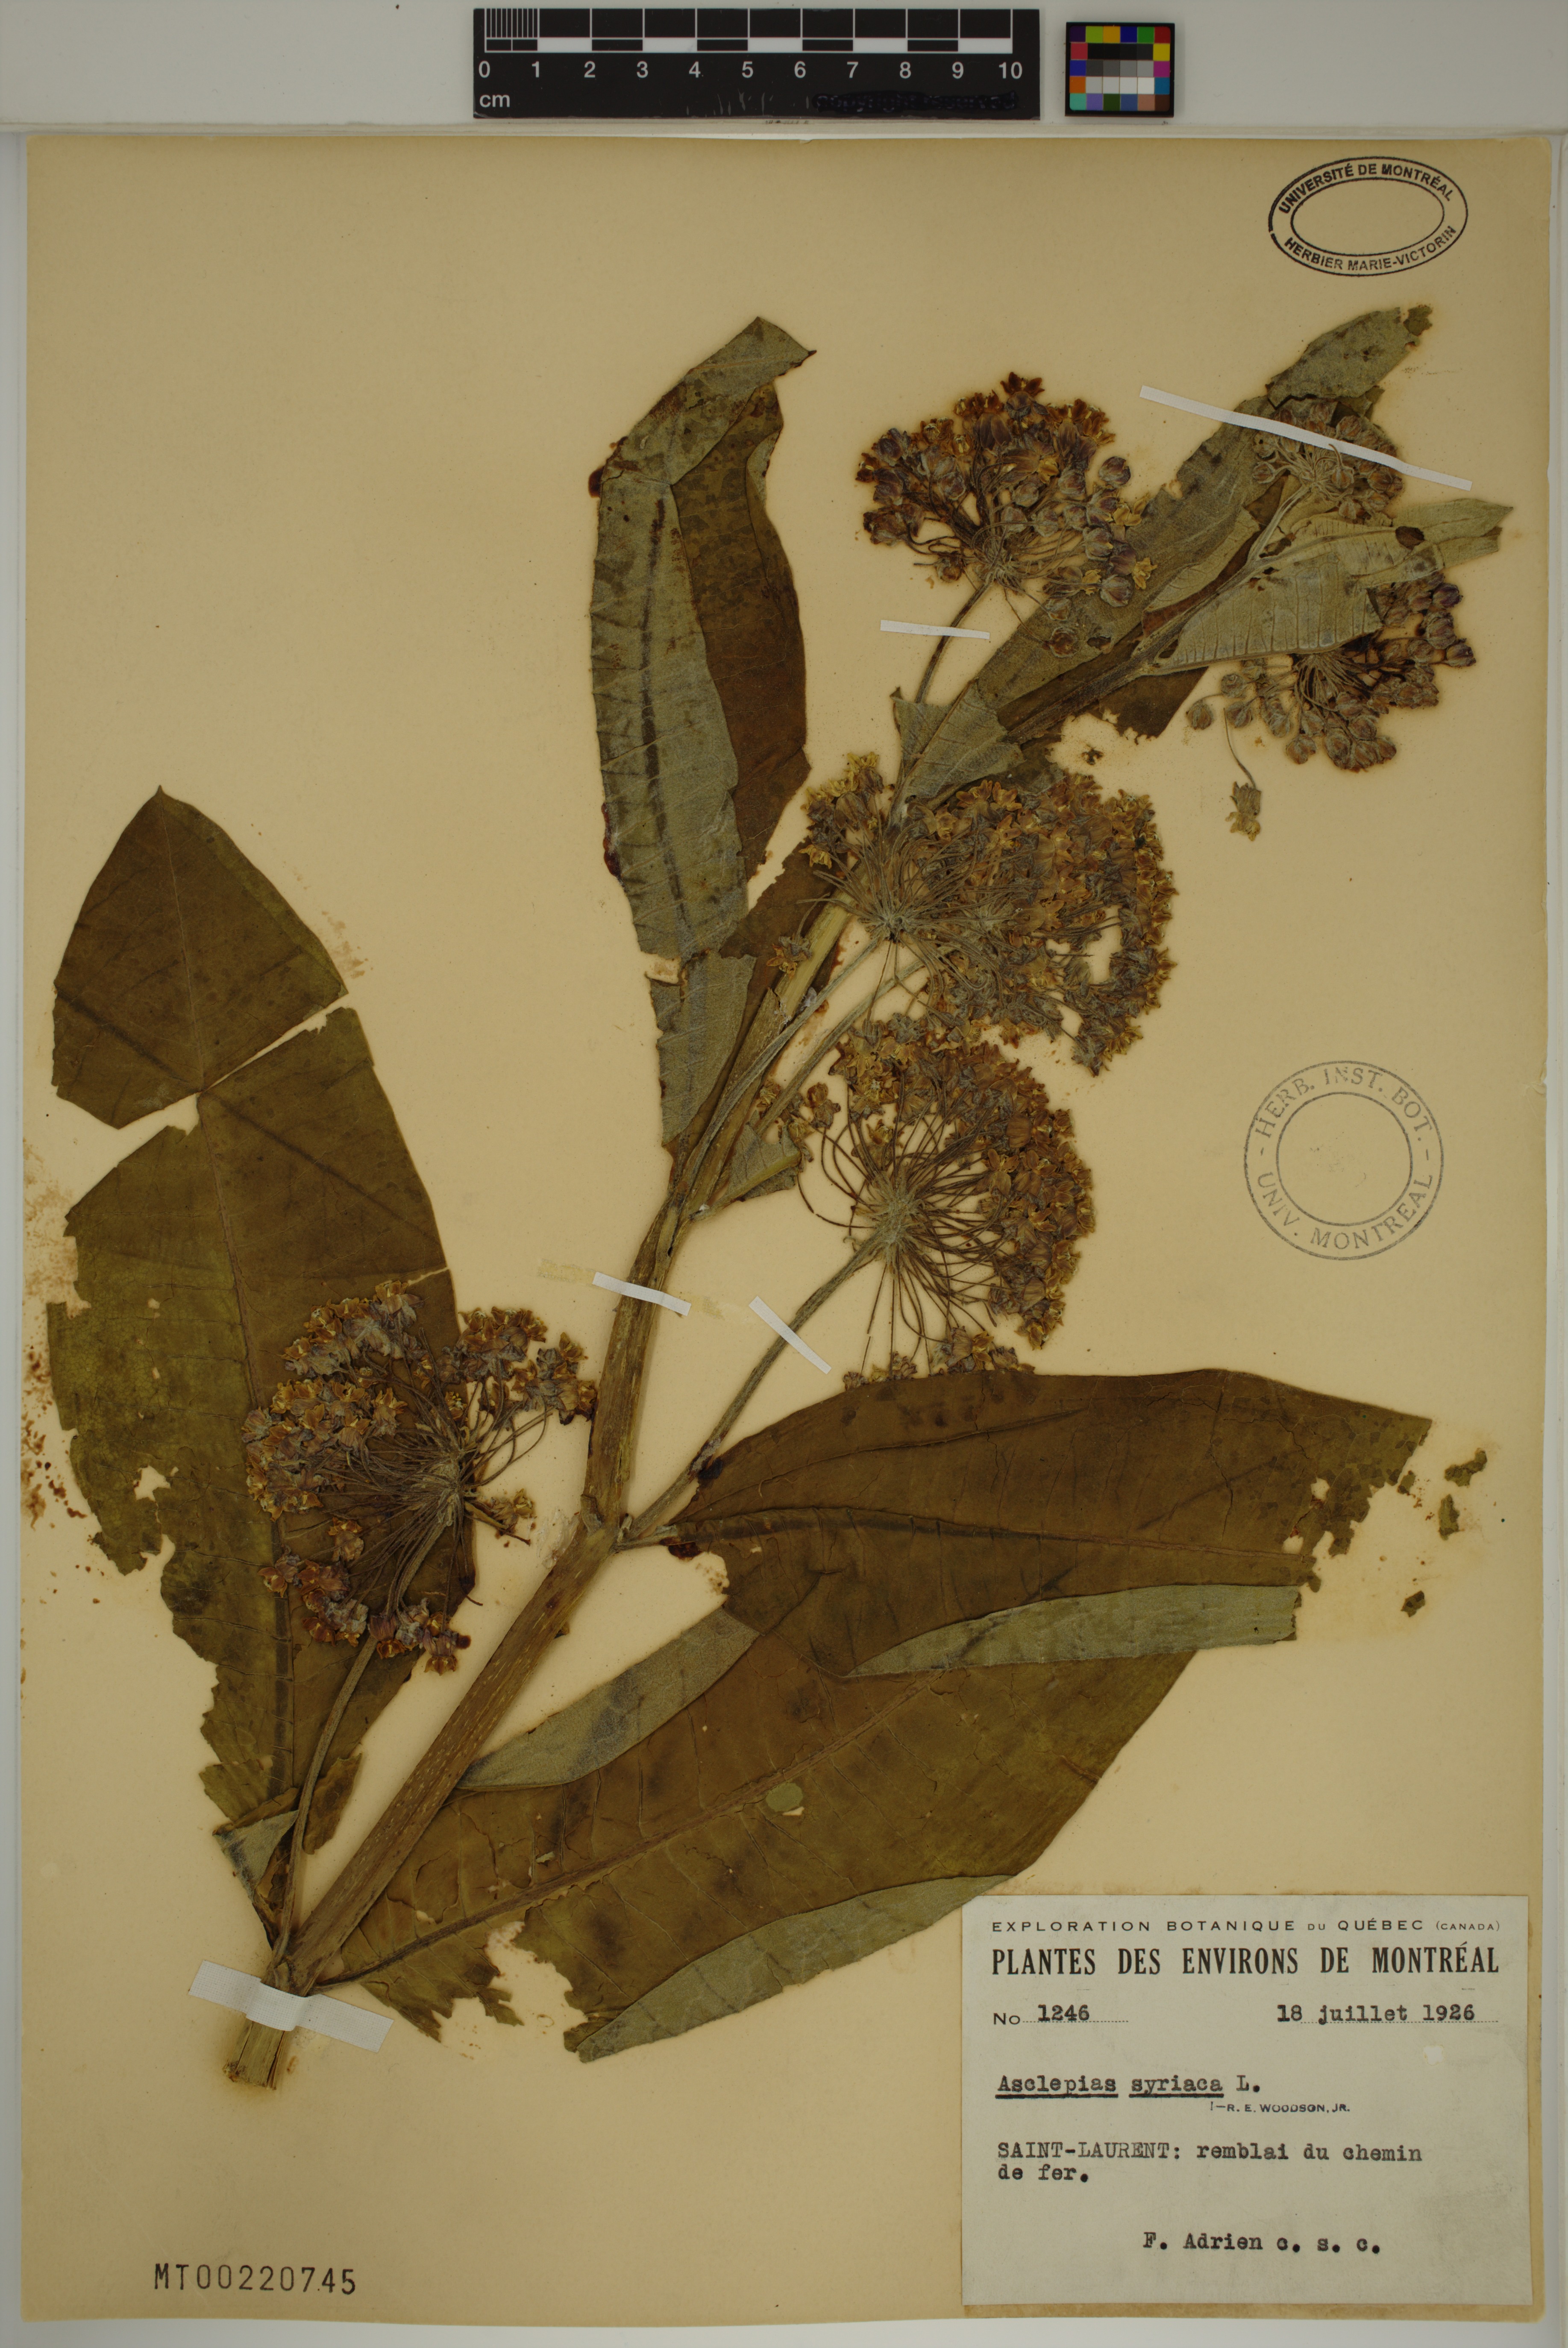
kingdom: Plantae
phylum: Tracheophyta
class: Magnoliopsida
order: Gentianales
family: Apocynaceae
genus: Asclepias
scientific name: Asclepias syriaca
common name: Common milkweed
